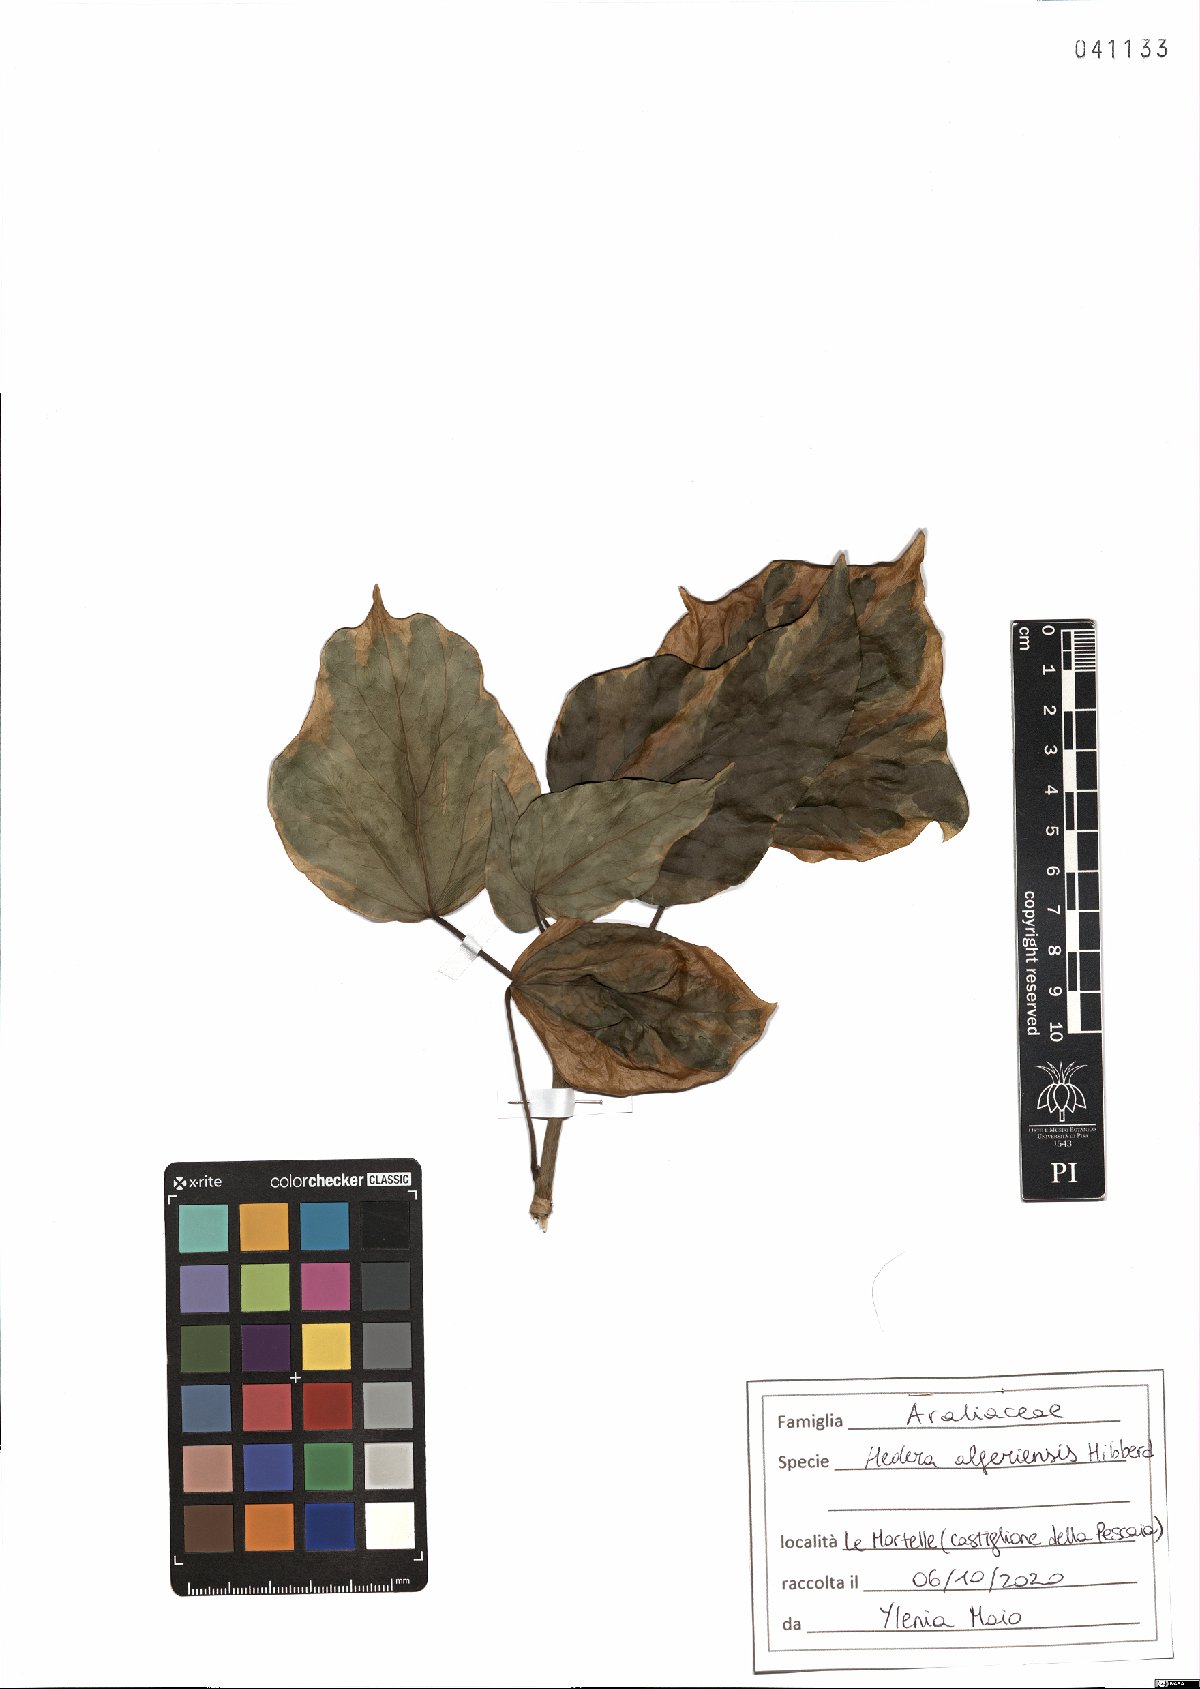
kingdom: Plantae
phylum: Tracheophyta
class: Magnoliopsida
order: Apiales
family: Araliaceae
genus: Hedera
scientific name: Hedera algeriensis
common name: Algerian ivy
